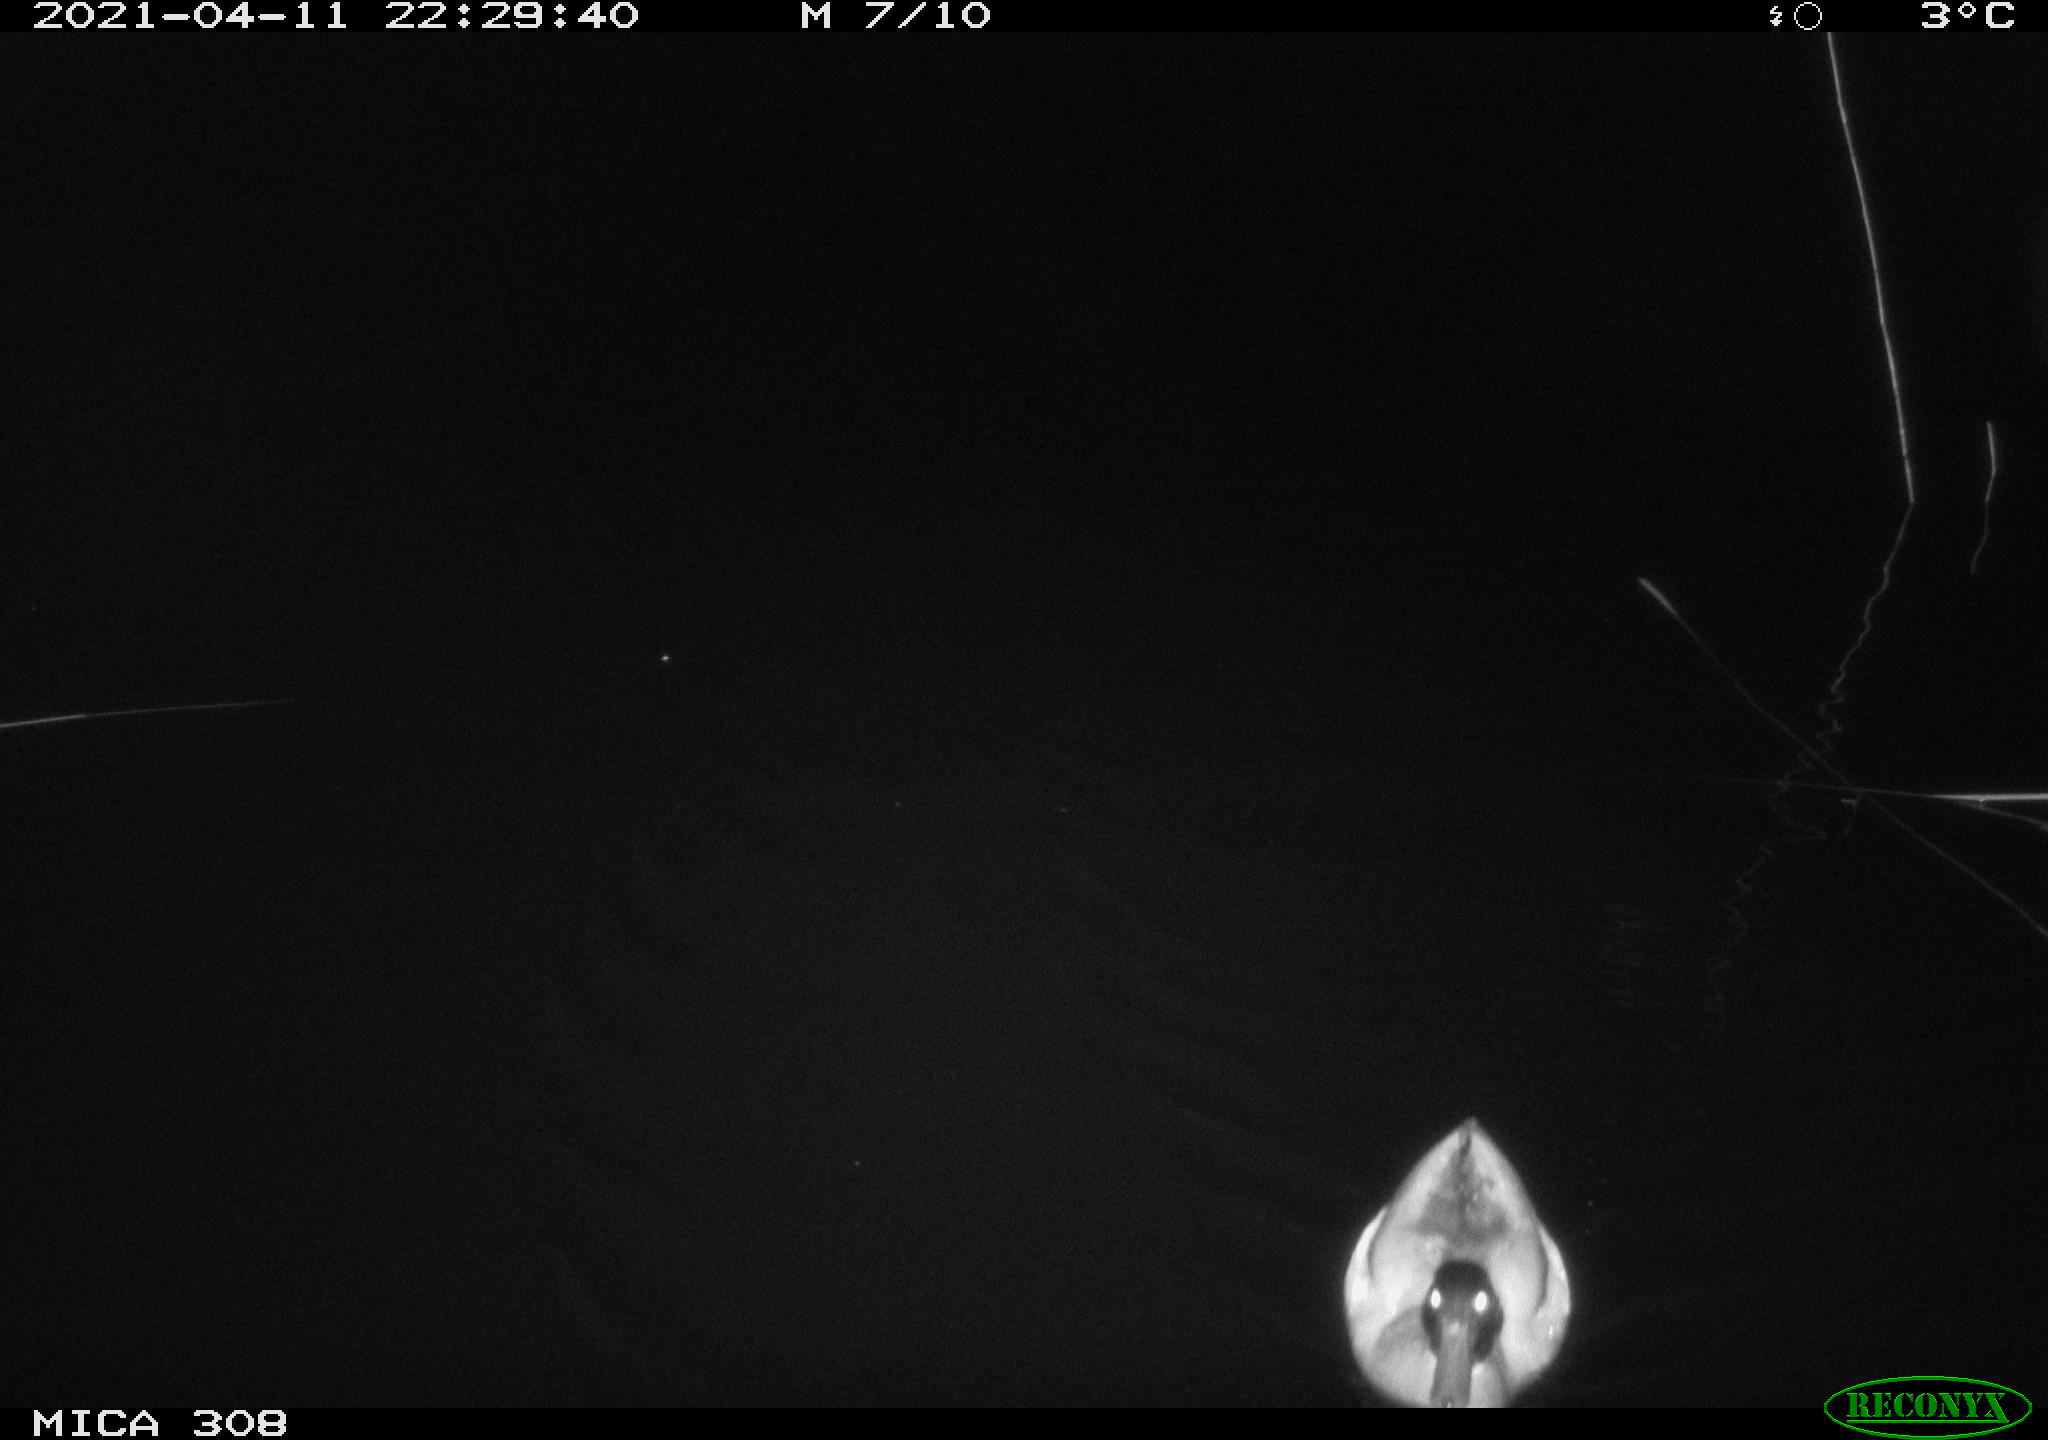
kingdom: Animalia
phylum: Chordata
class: Aves
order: Anseriformes
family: Anatidae
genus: Anas
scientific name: Anas platyrhynchos
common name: Mallard
